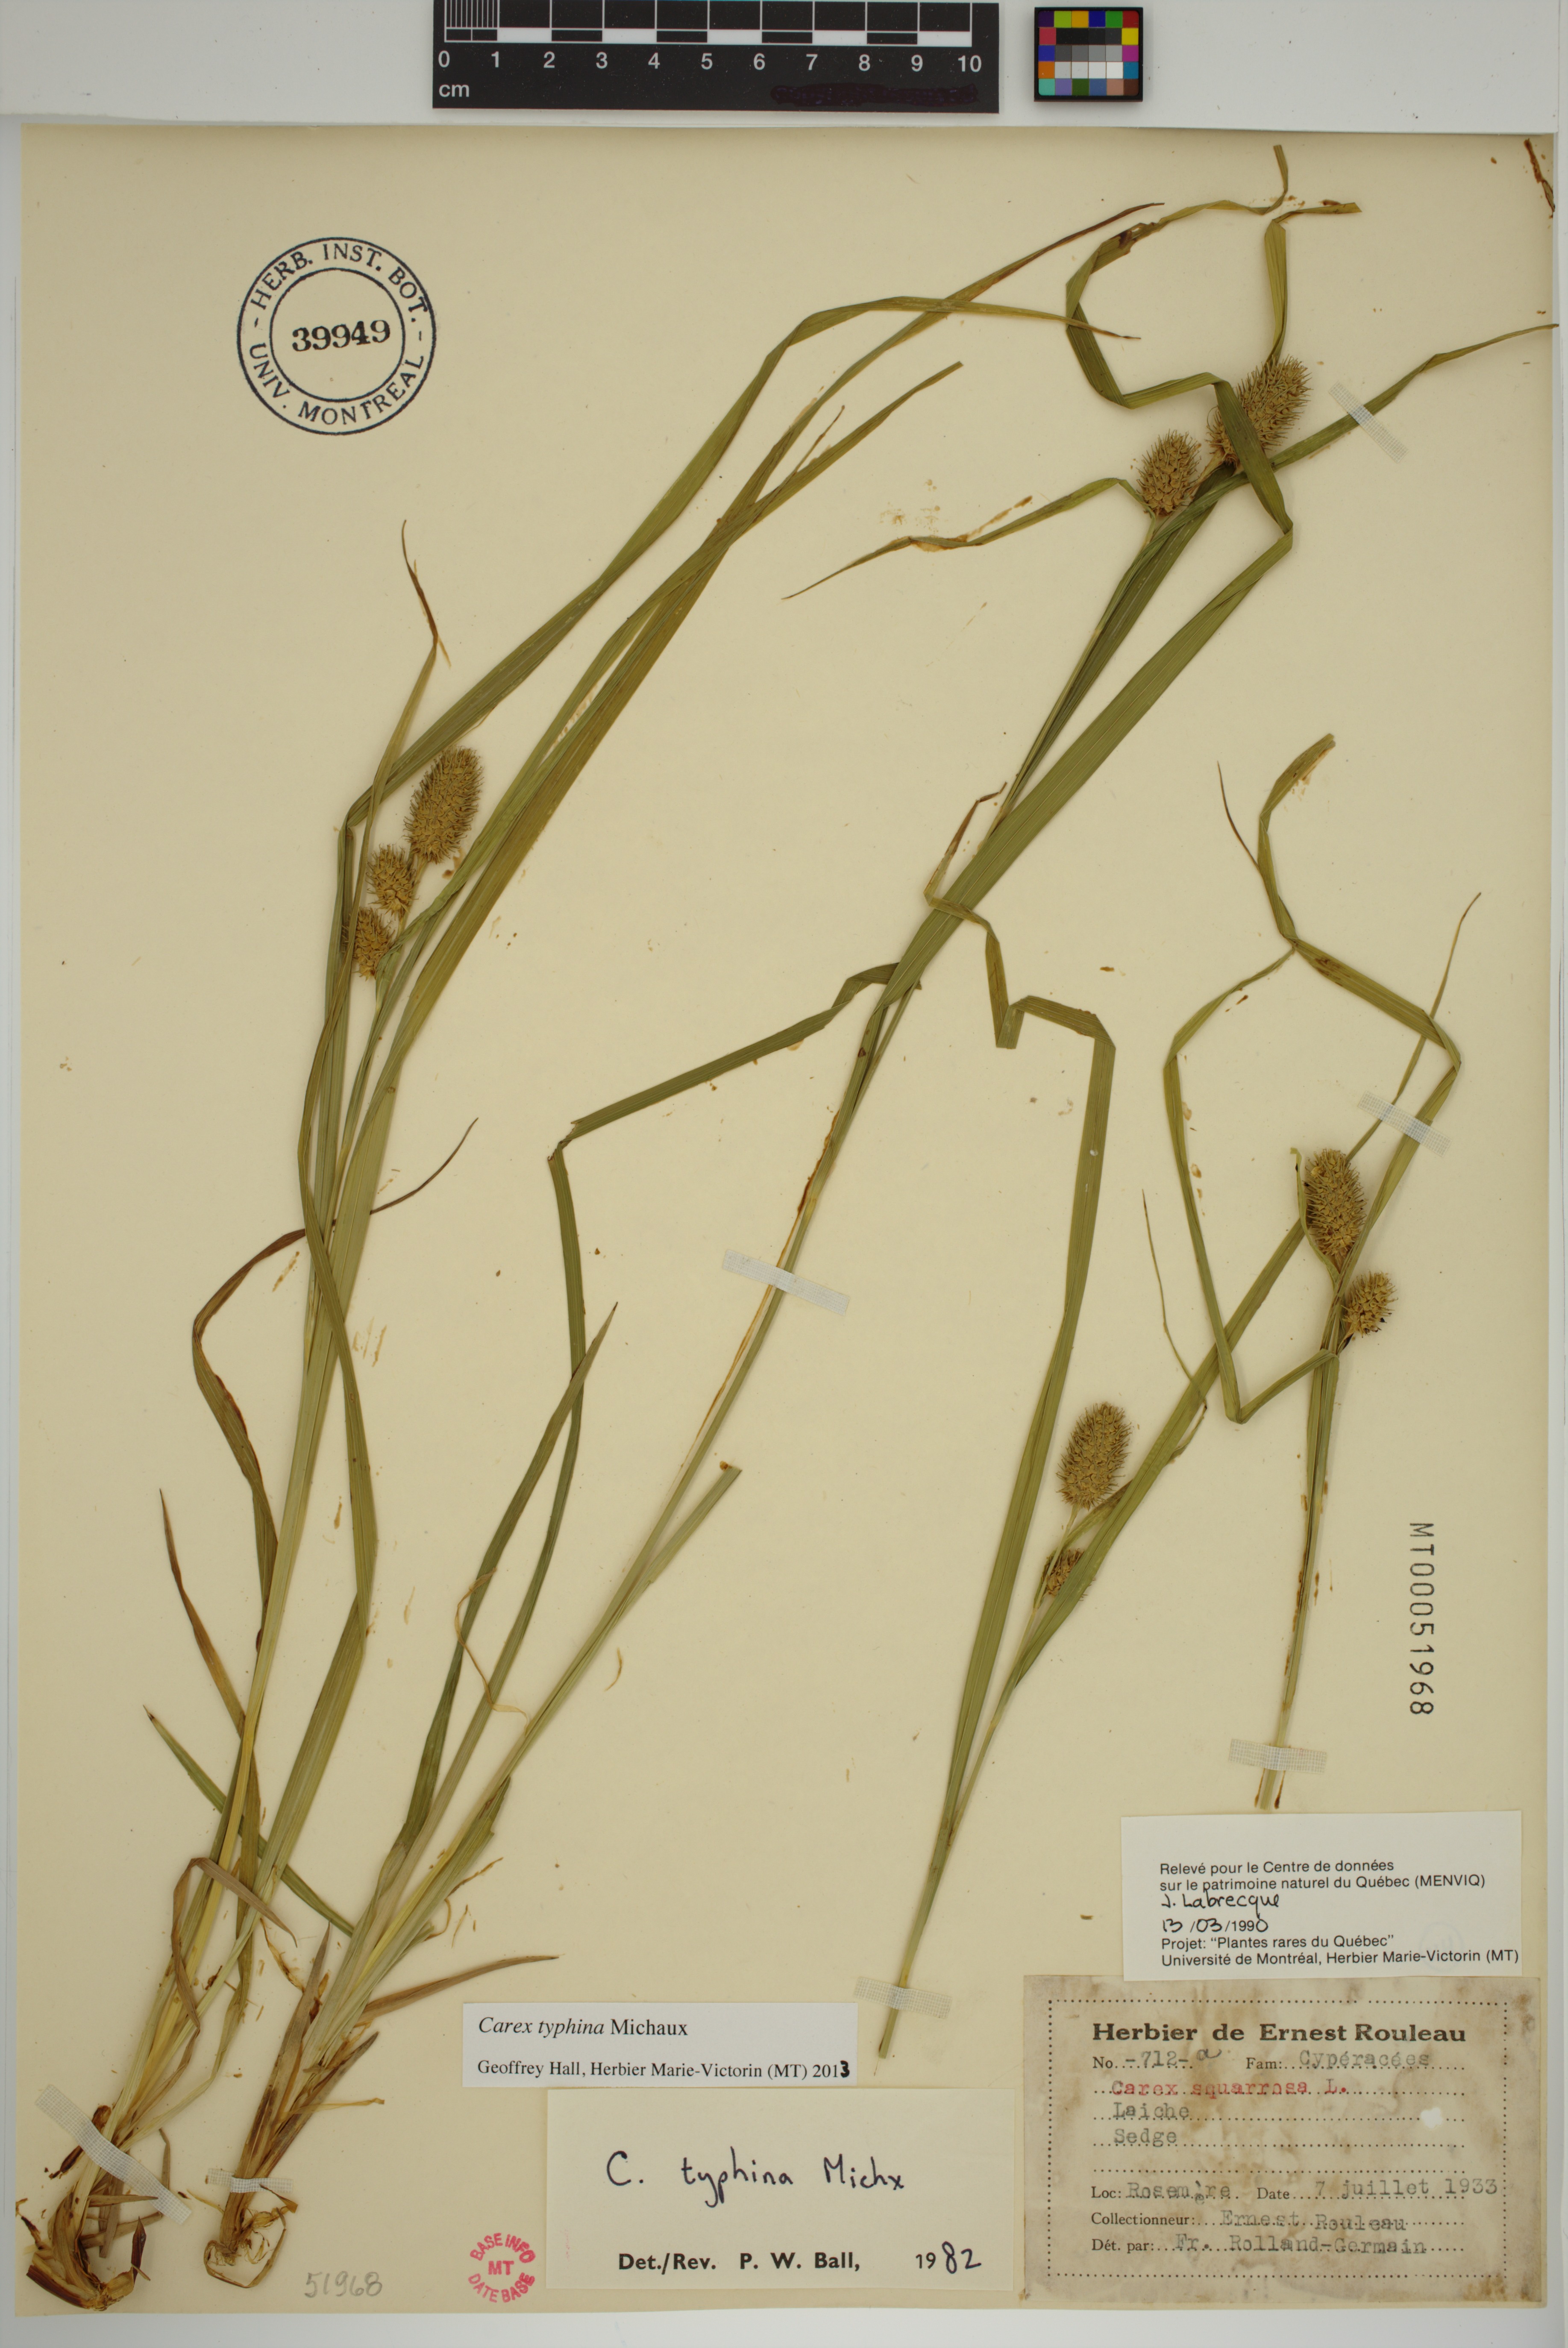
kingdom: Plantae
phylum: Tracheophyta
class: Liliopsida
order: Poales
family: Cyperaceae
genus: Carex
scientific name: Carex typhina
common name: Cattail sedge
